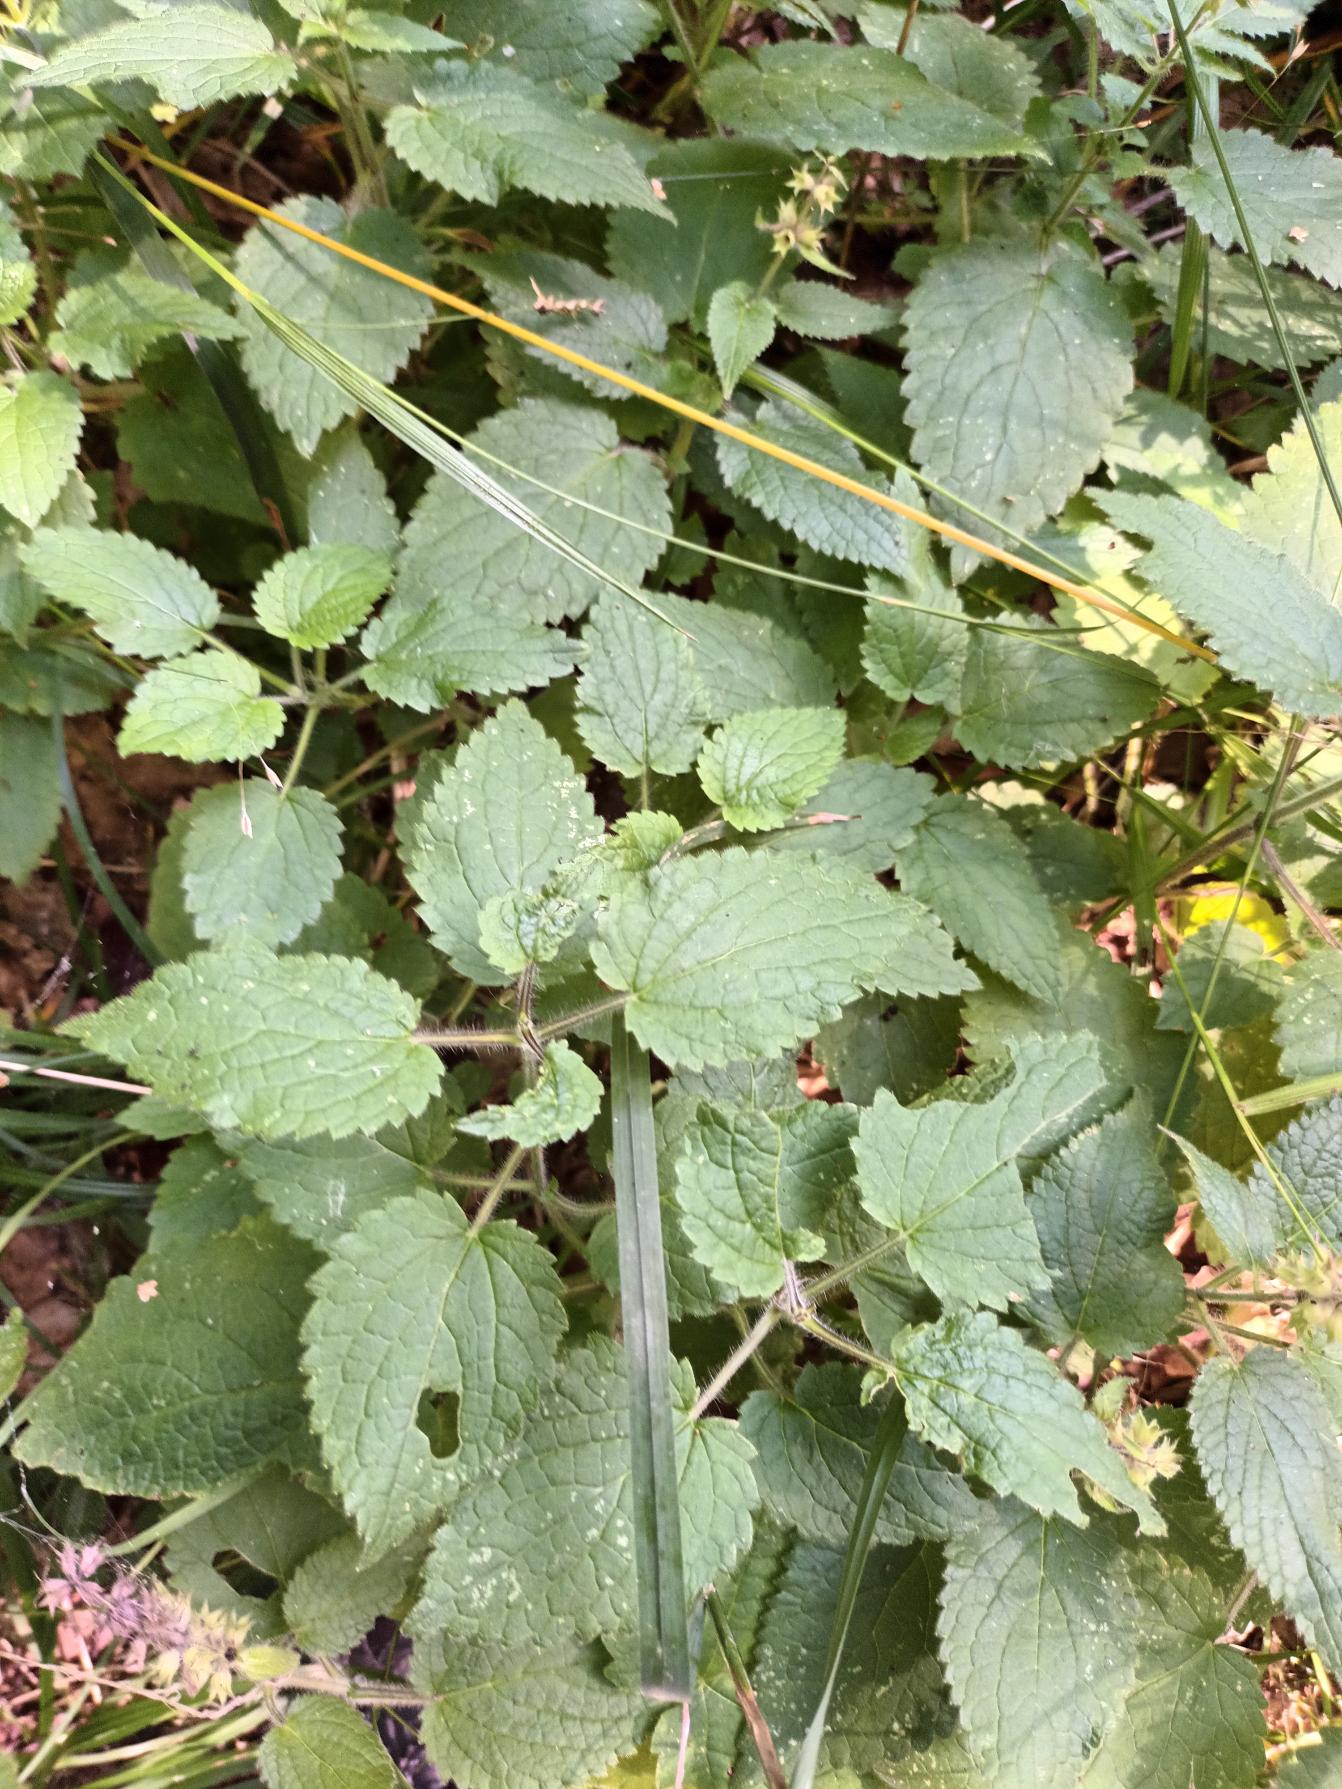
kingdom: Plantae
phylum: Tracheophyta
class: Magnoliopsida
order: Lamiales
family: Lamiaceae
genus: Stachys
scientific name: Stachys sylvatica
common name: Skov-galtetand
